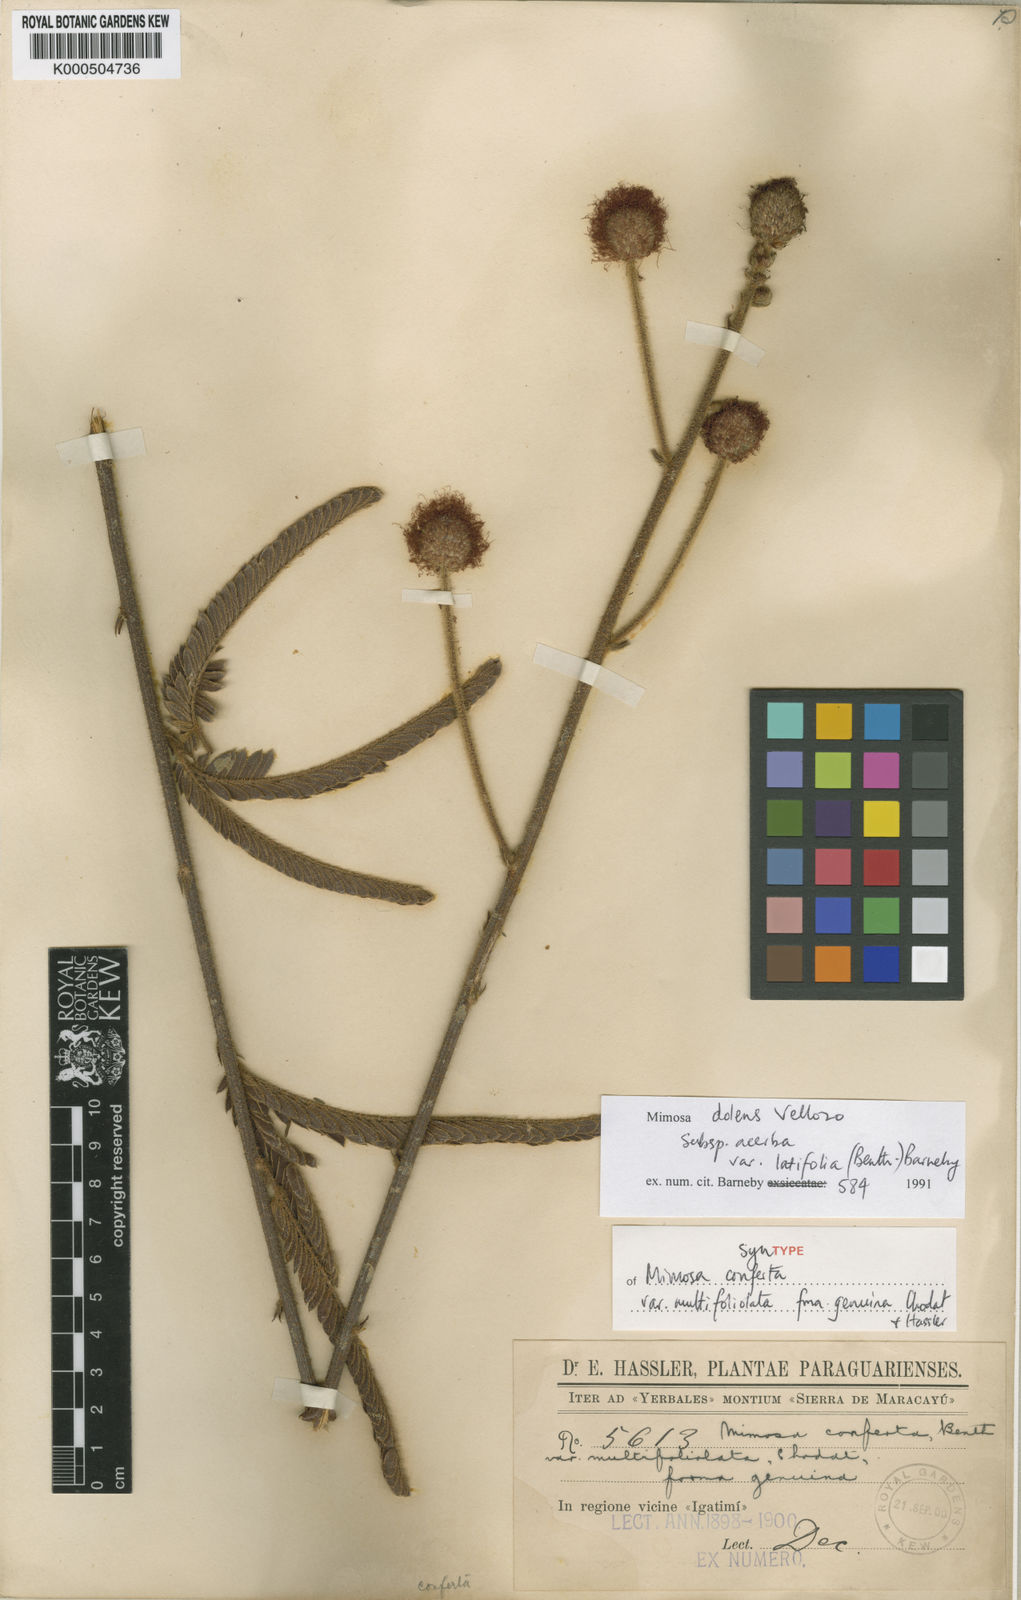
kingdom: Plantae
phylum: Tracheophyta
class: Magnoliopsida
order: Fabales
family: Fabaceae
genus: Mimosa
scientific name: Mimosa dolens
